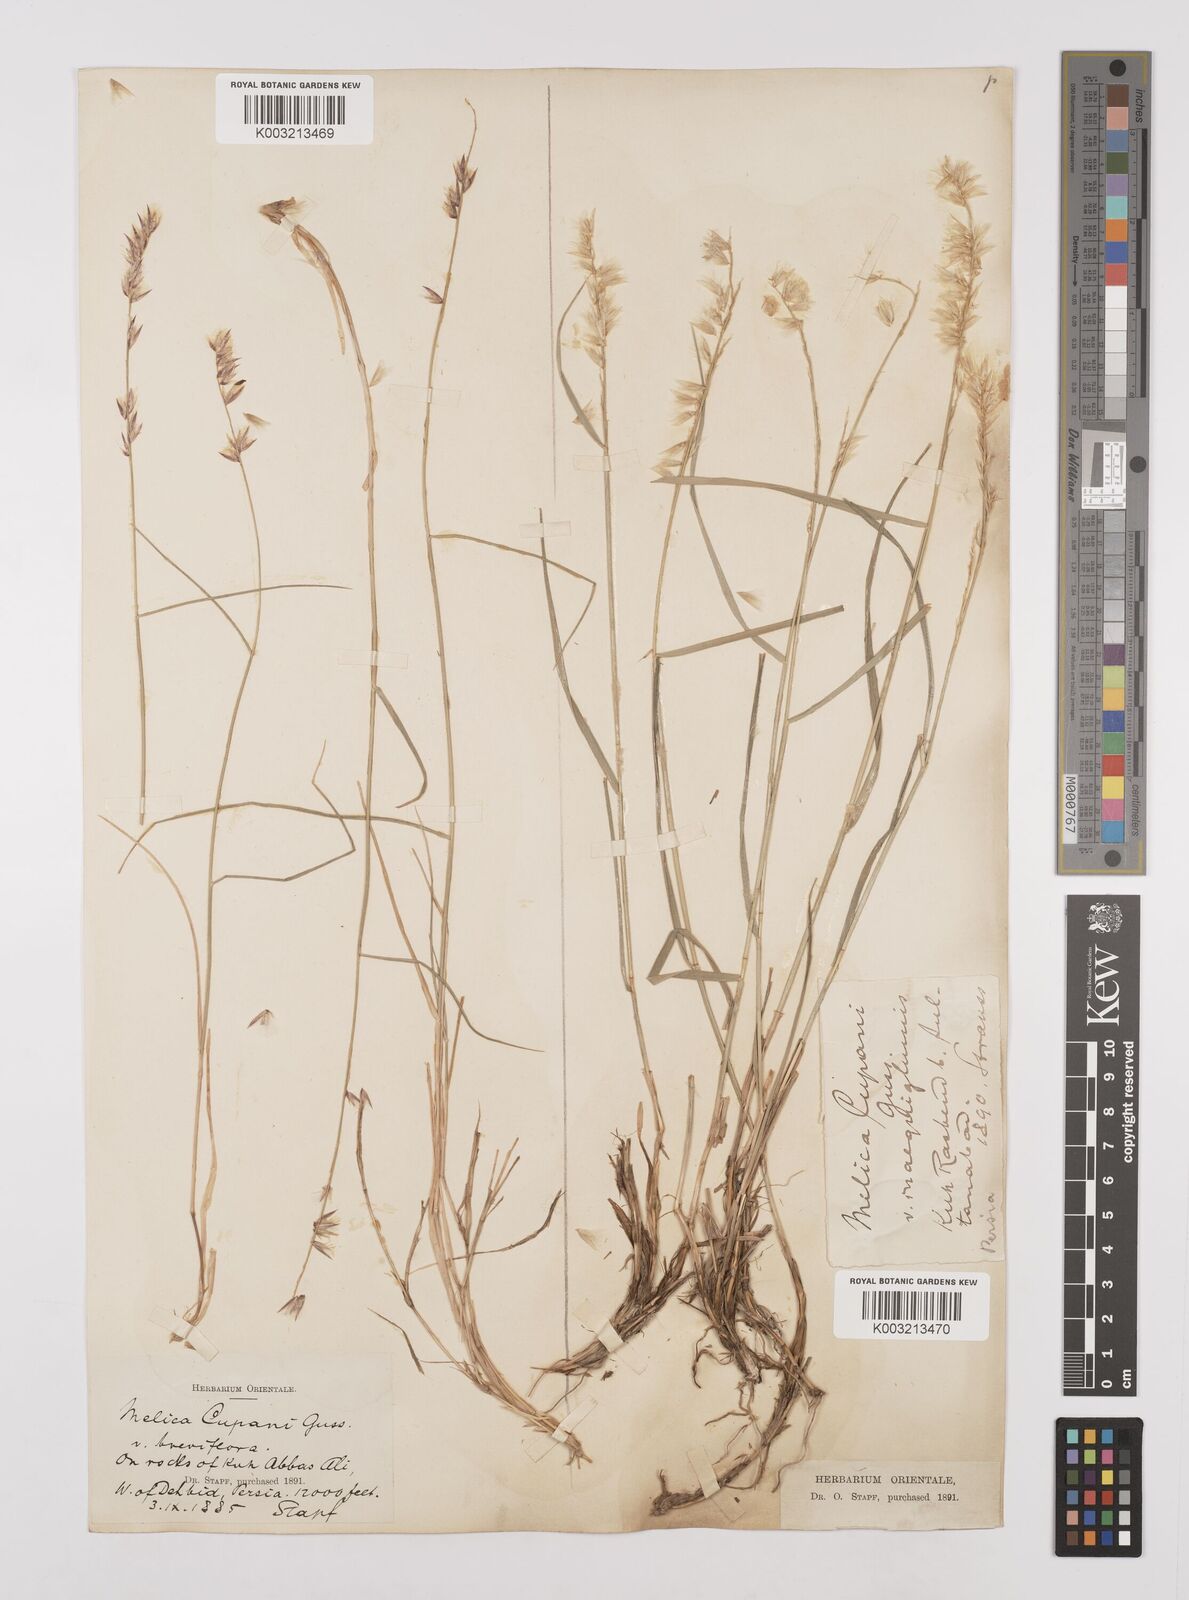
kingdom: Plantae
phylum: Tracheophyta
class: Liliopsida
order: Poales
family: Poaceae
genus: Melica
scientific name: Melica persica
